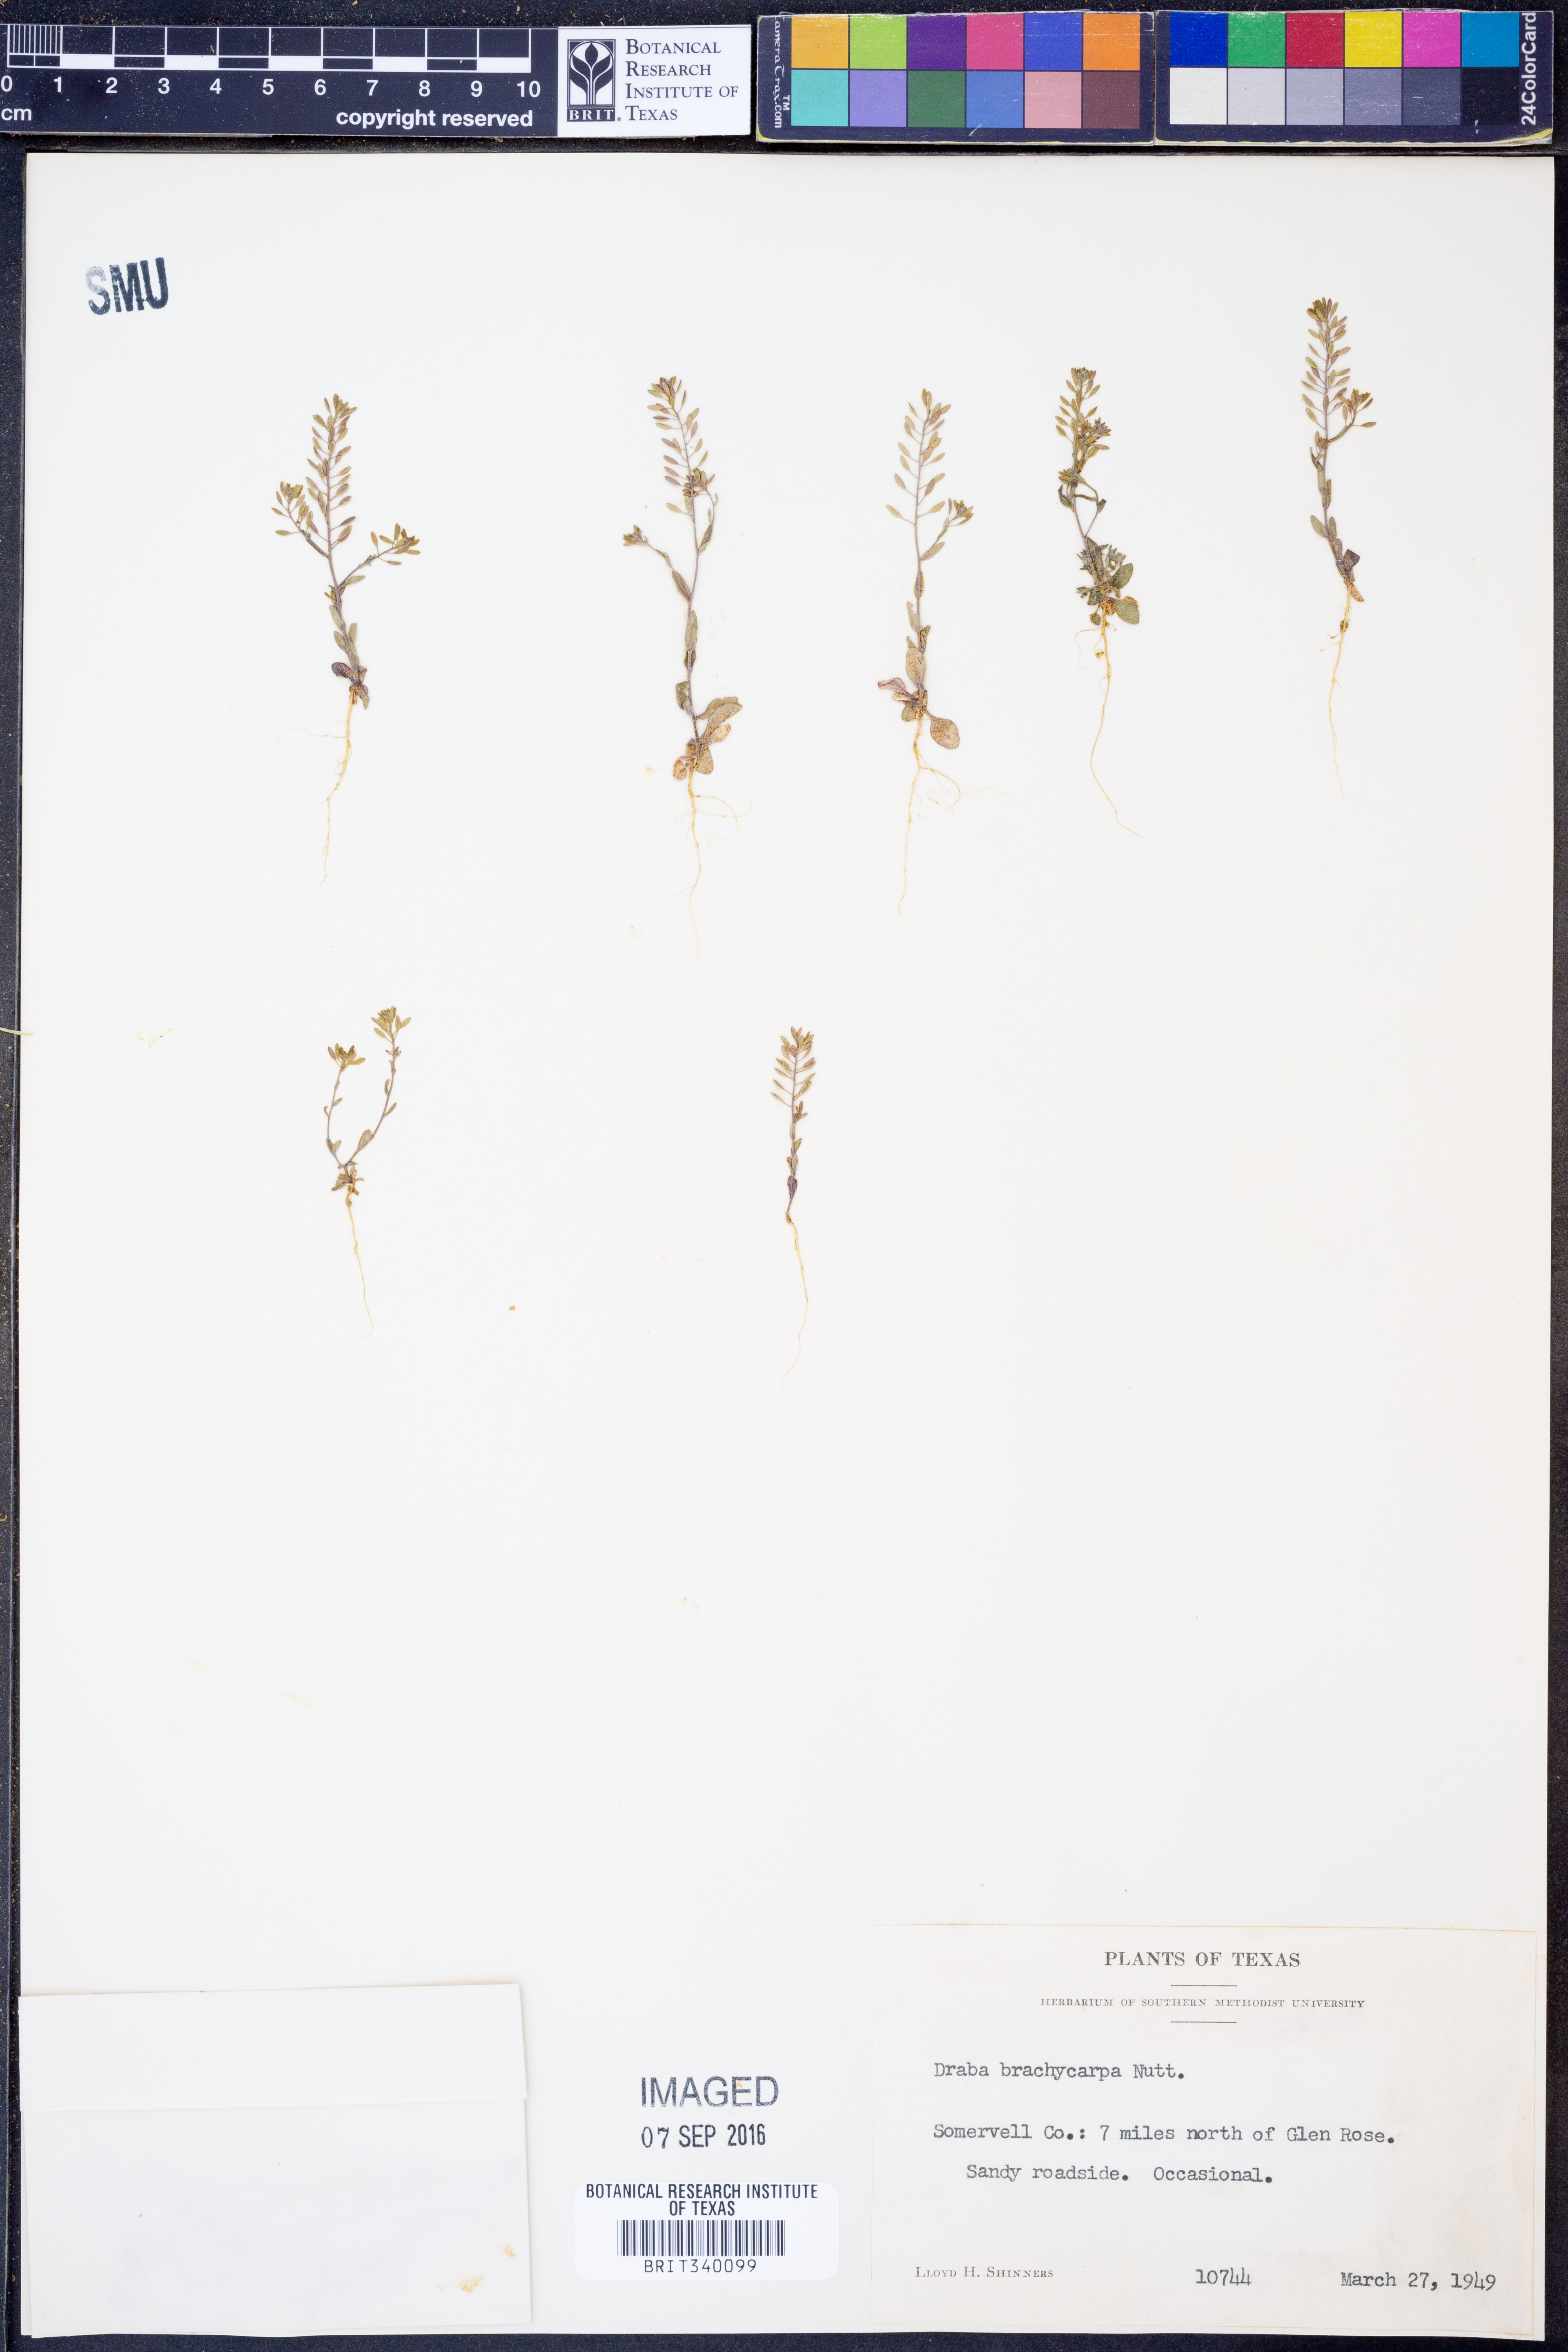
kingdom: Plantae
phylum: Tracheophyta
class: Magnoliopsida
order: Brassicales
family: Brassicaceae
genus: Abdra
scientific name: Abdra brachycarpa
